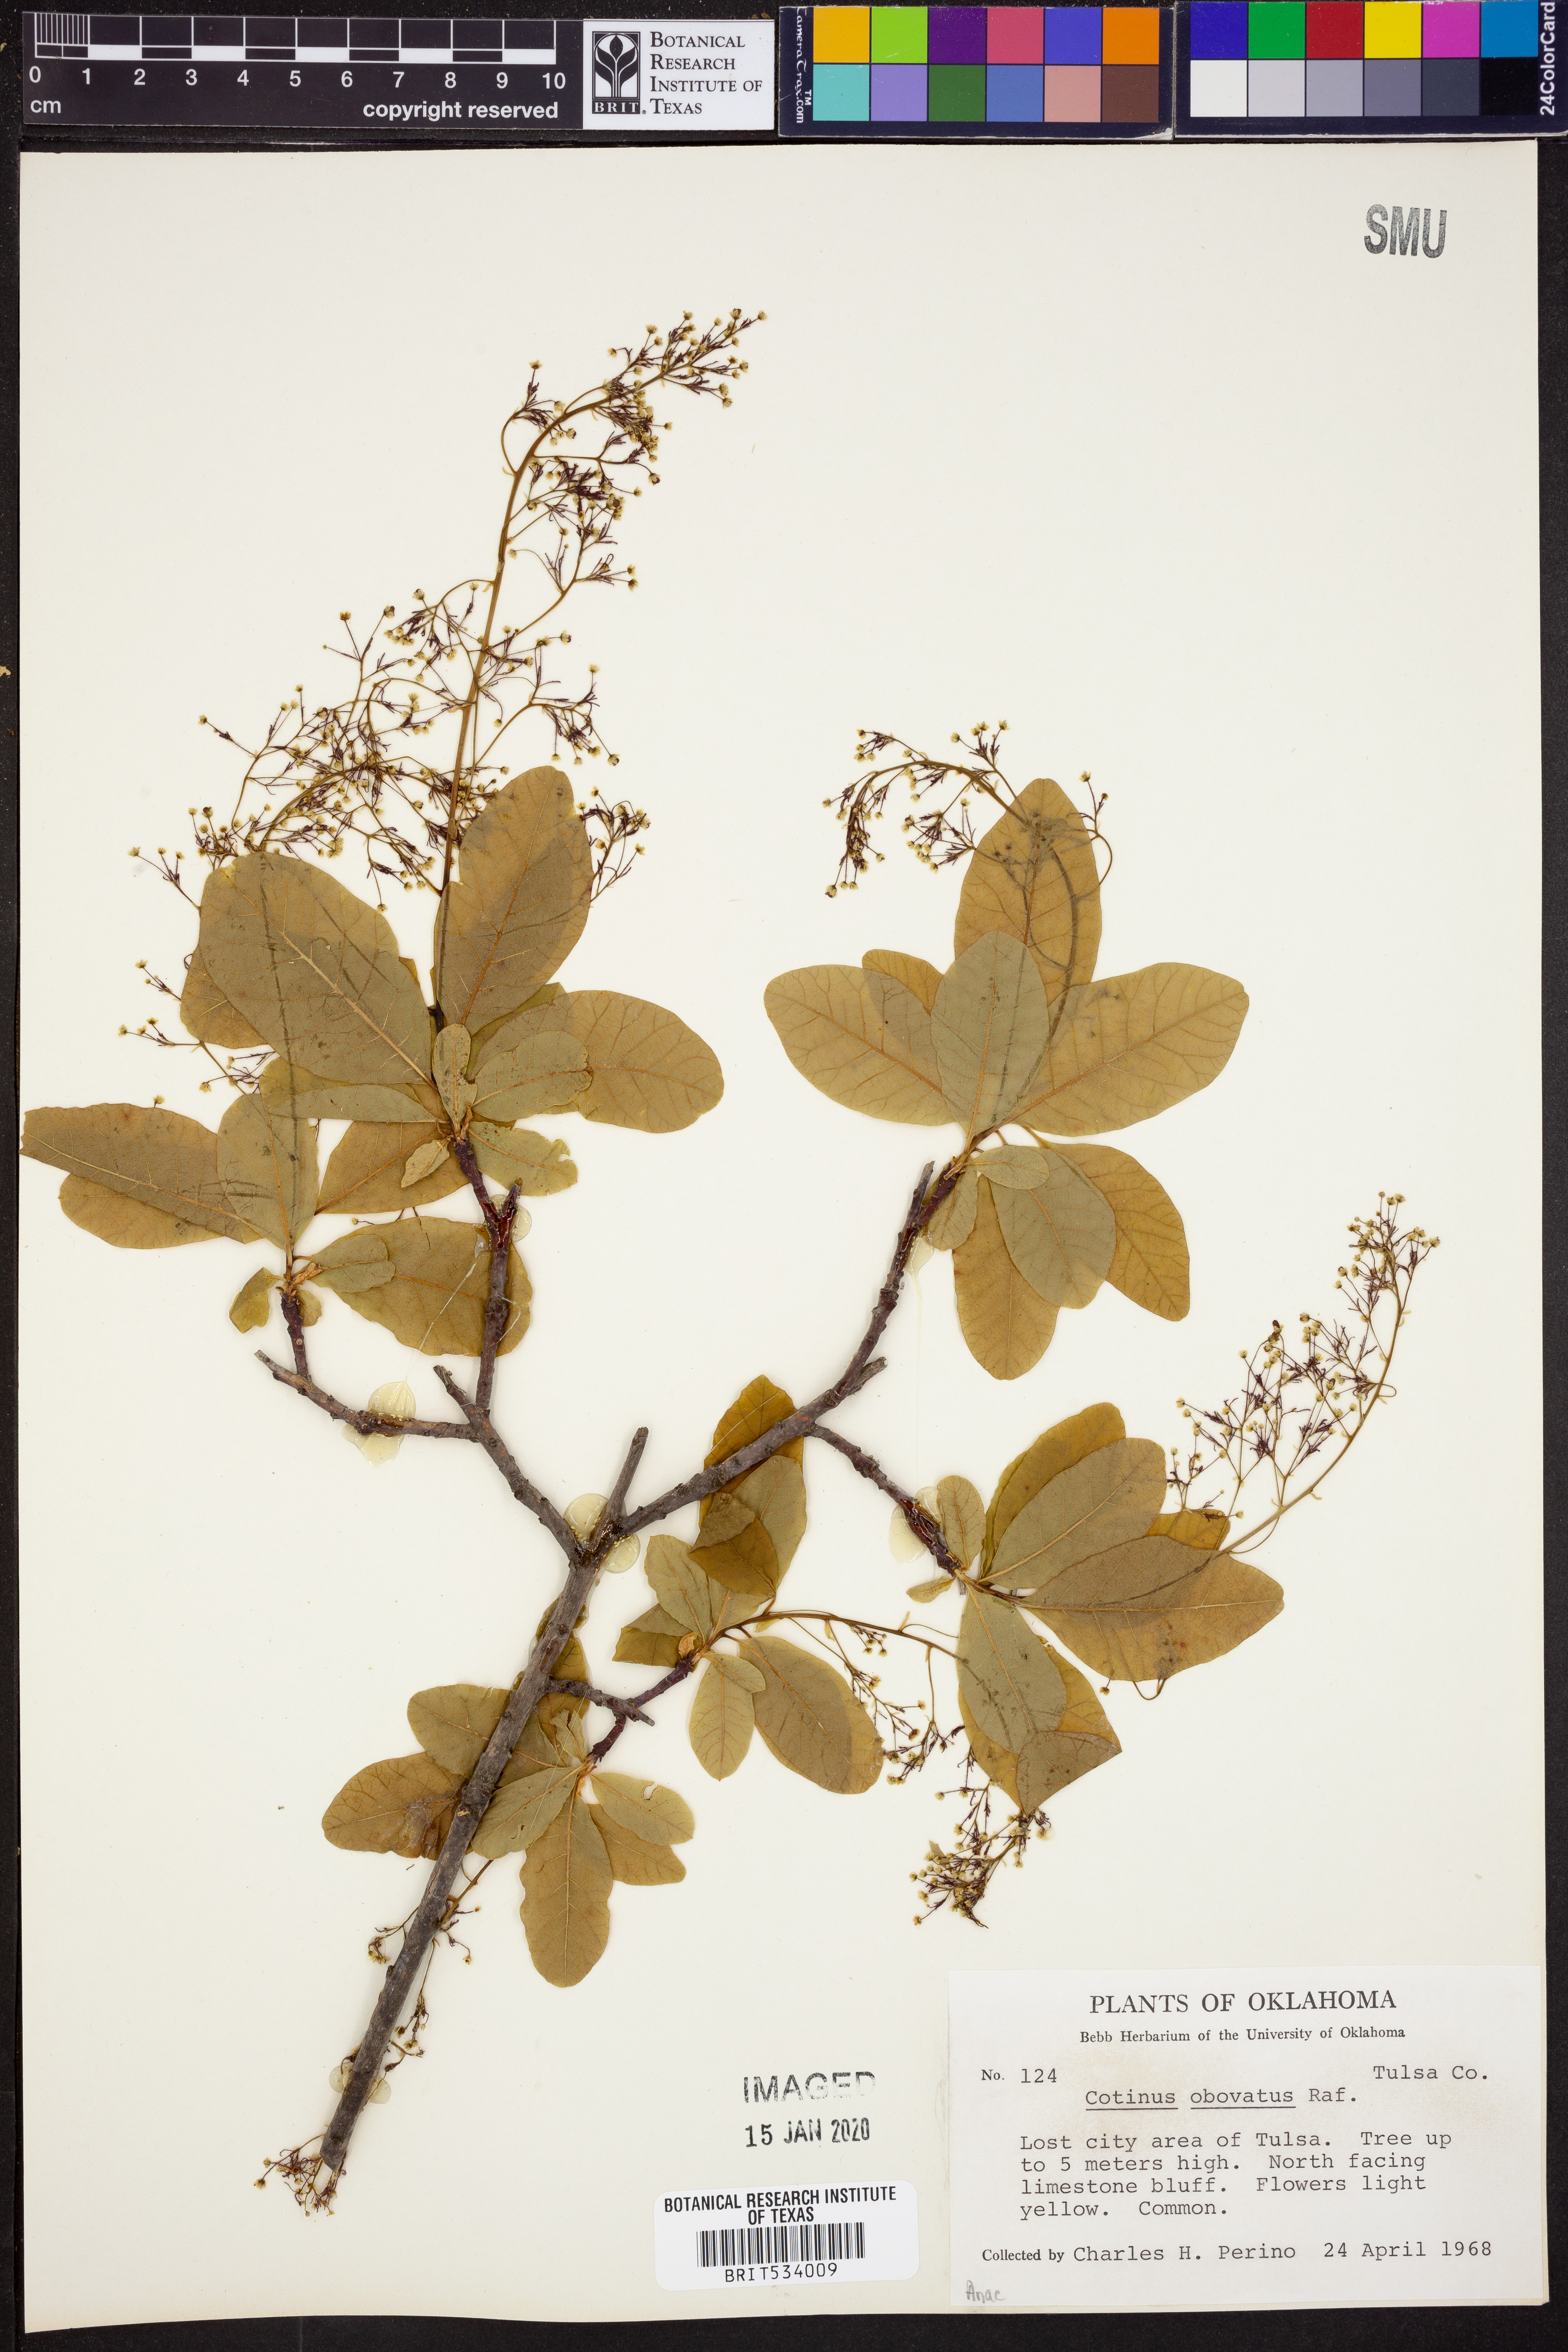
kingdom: Plantae
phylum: Tracheophyta
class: Magnoliopsida
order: Sapindales
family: Anacardiaceae
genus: Cotinus
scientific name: Cotinus obovatus
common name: Chittamwood
